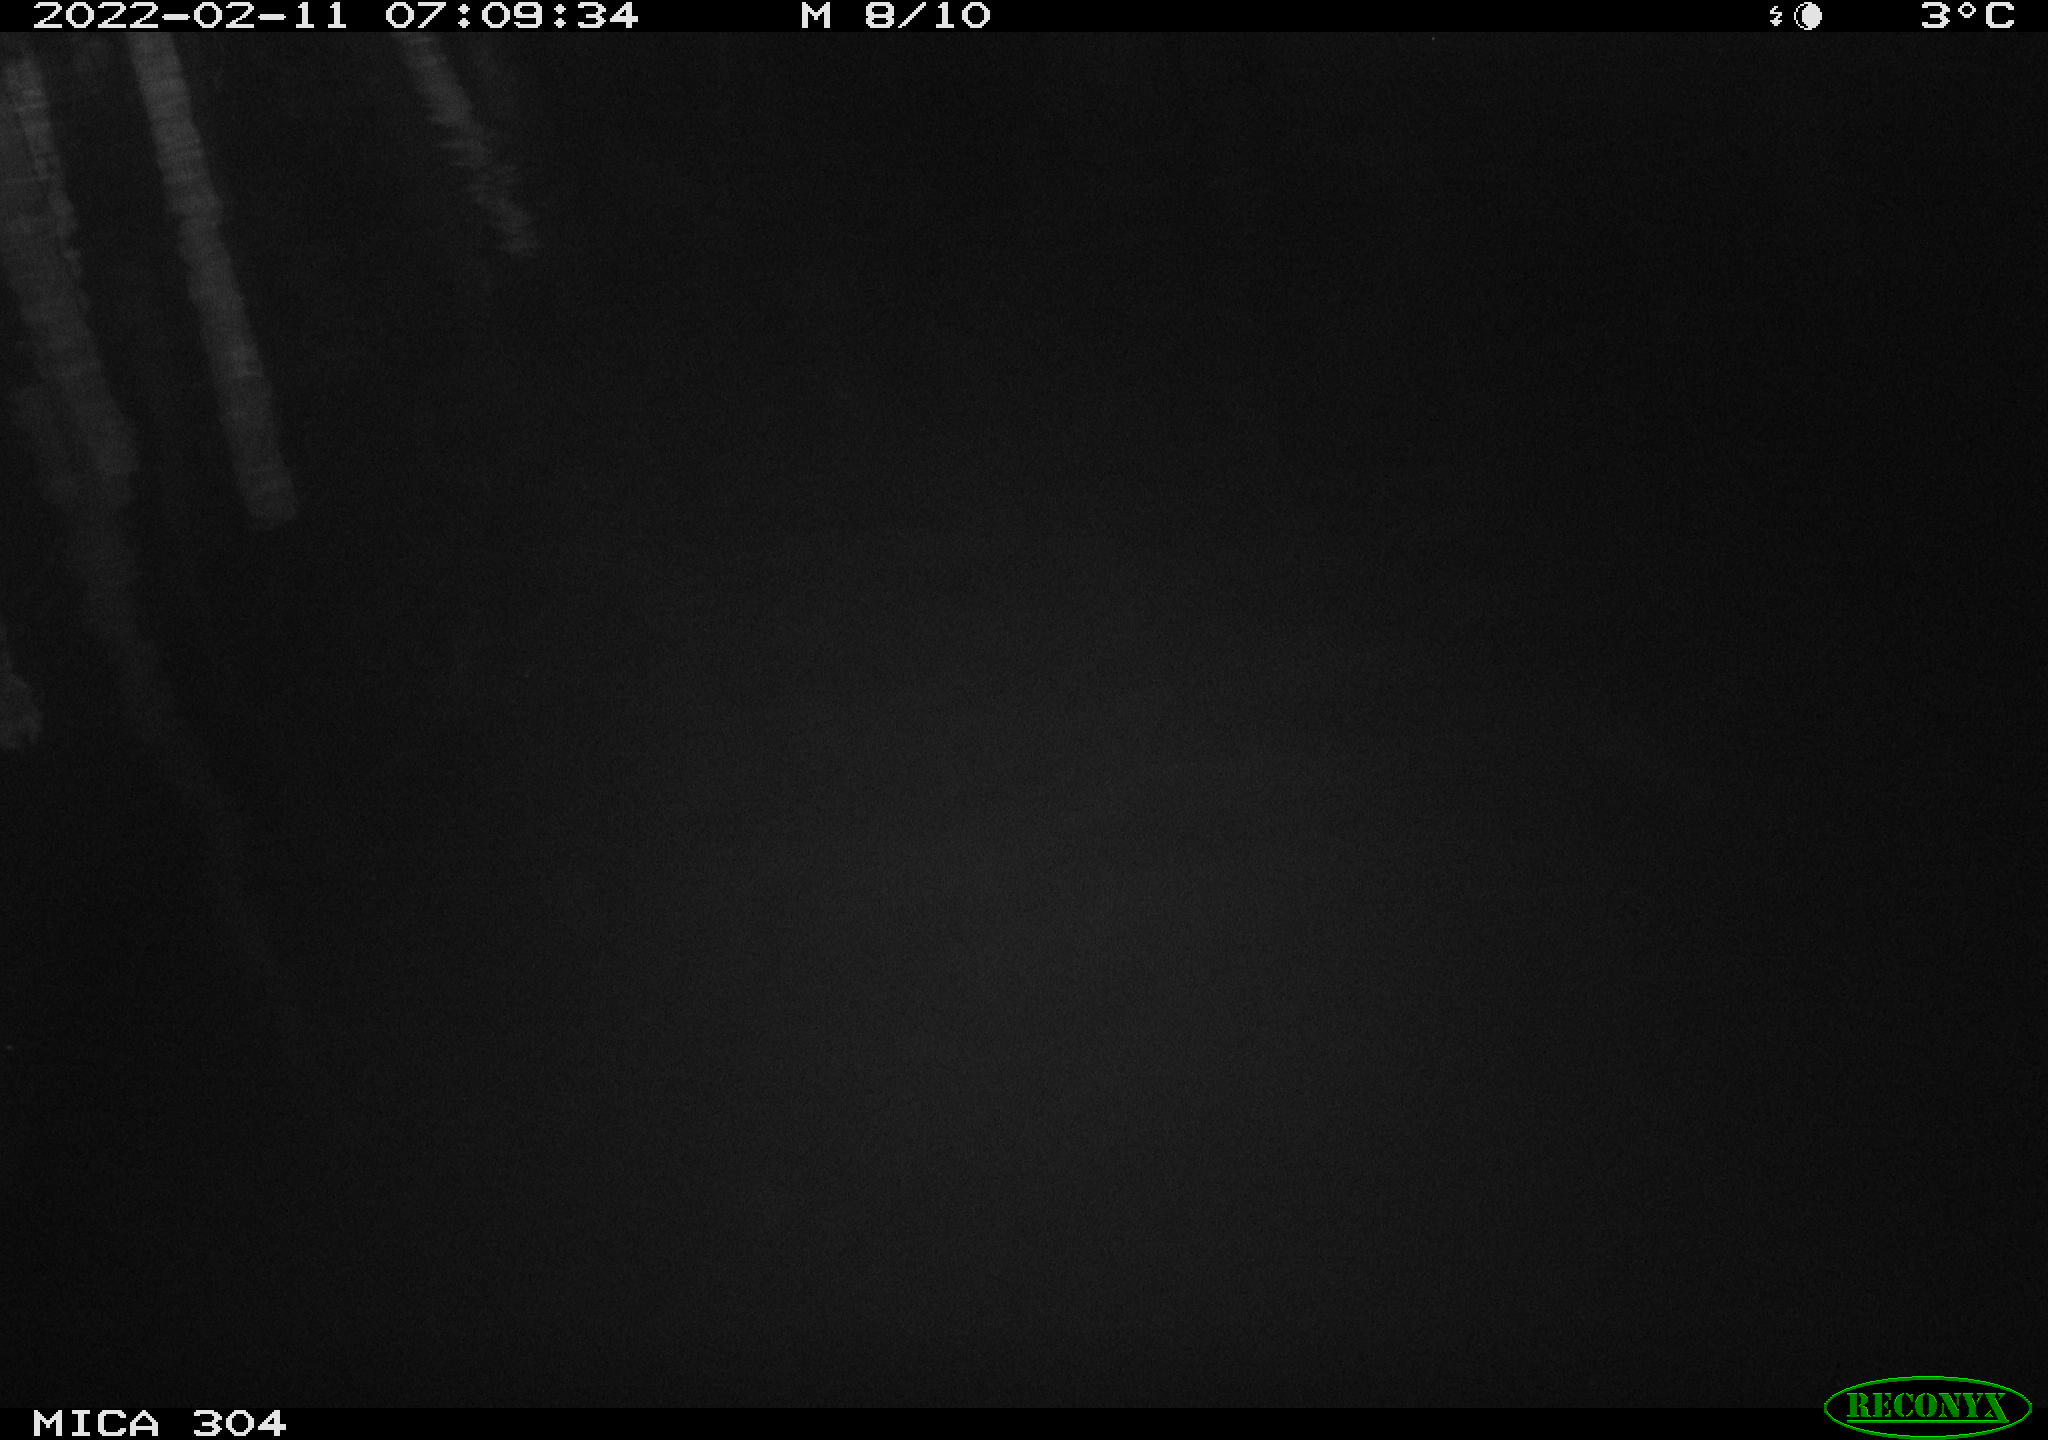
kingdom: Animalia
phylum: Chordata
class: Aves
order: Anseriformes
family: Anatidae
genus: Anas
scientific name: Anas platyrhynchos
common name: Mallard
